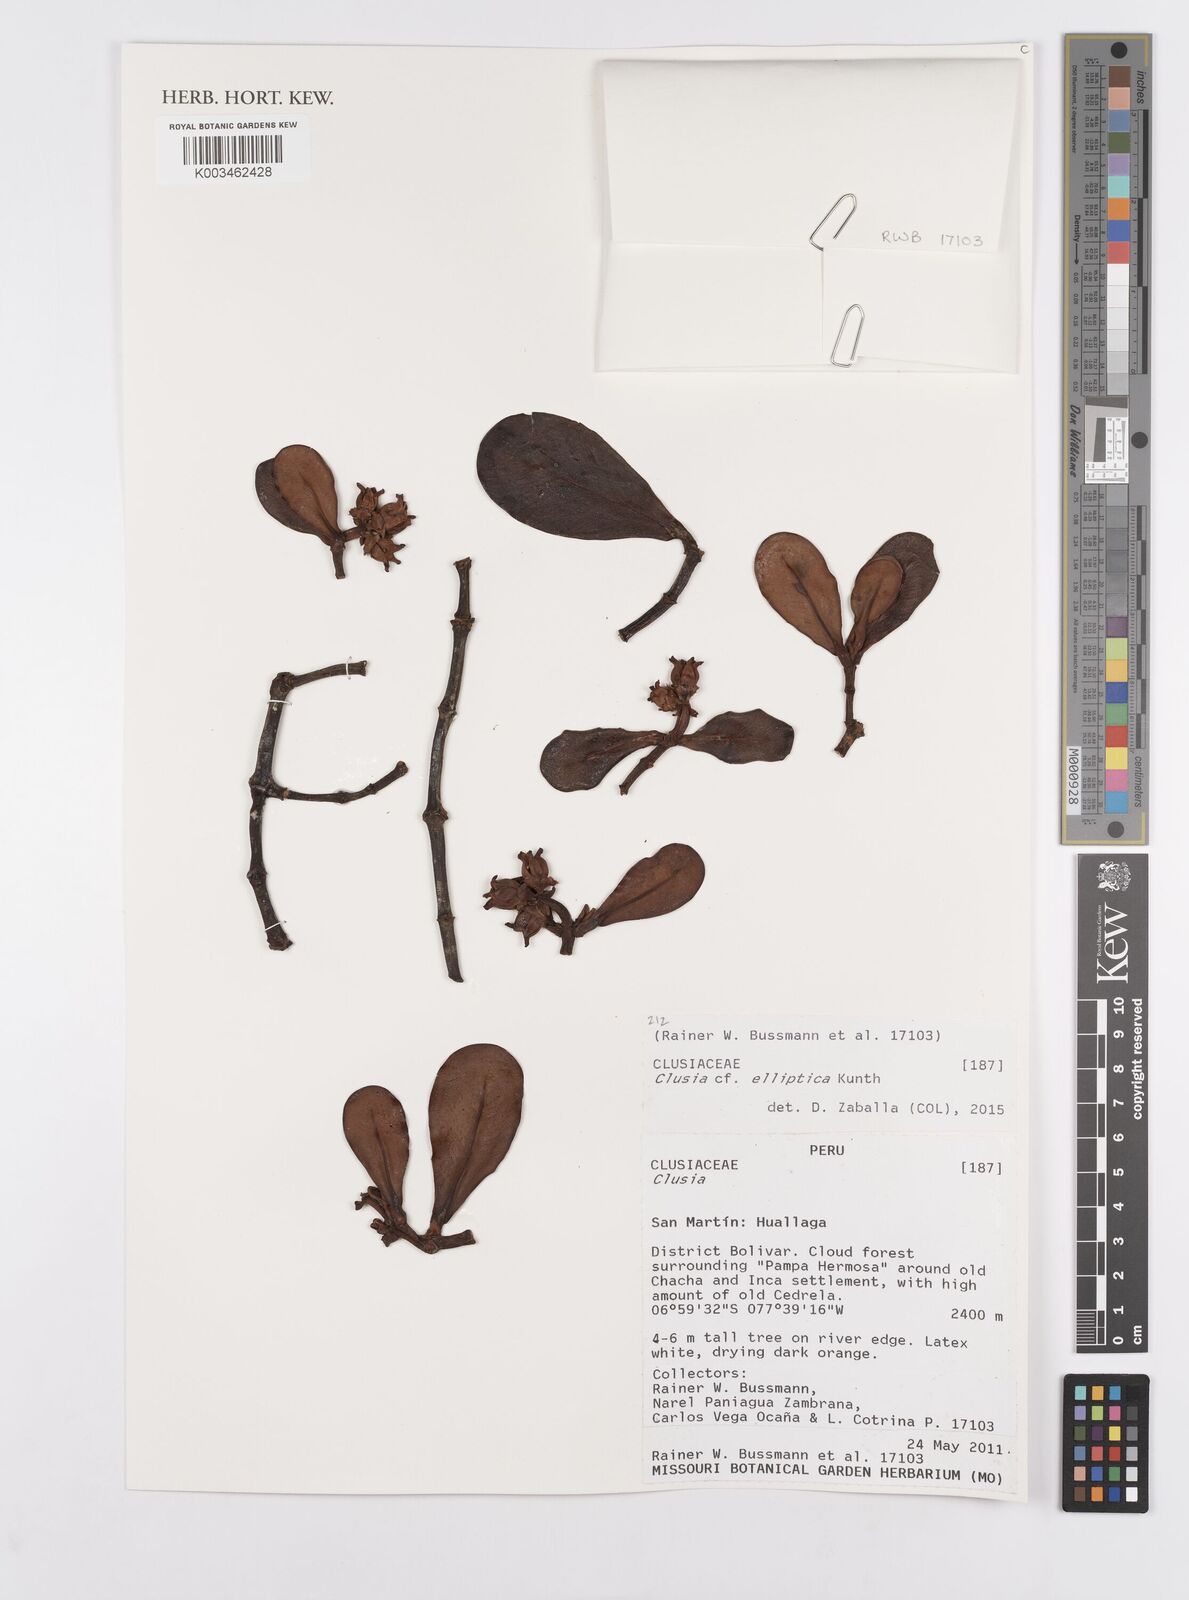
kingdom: Plantae
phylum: Tracheophyta
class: Magnoliopsida
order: Malpighiales
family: Clusiaceae
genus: Clusia
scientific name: Clusia elliptica
